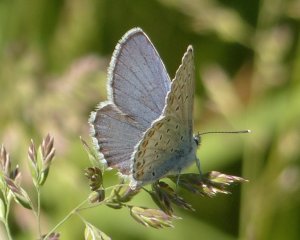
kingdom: Animalia
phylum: Arthropoda
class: Insecta
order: Lepidoptera
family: Lycaenidae
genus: Lycaeides
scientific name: Lycaeides idas
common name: Northern Blue
